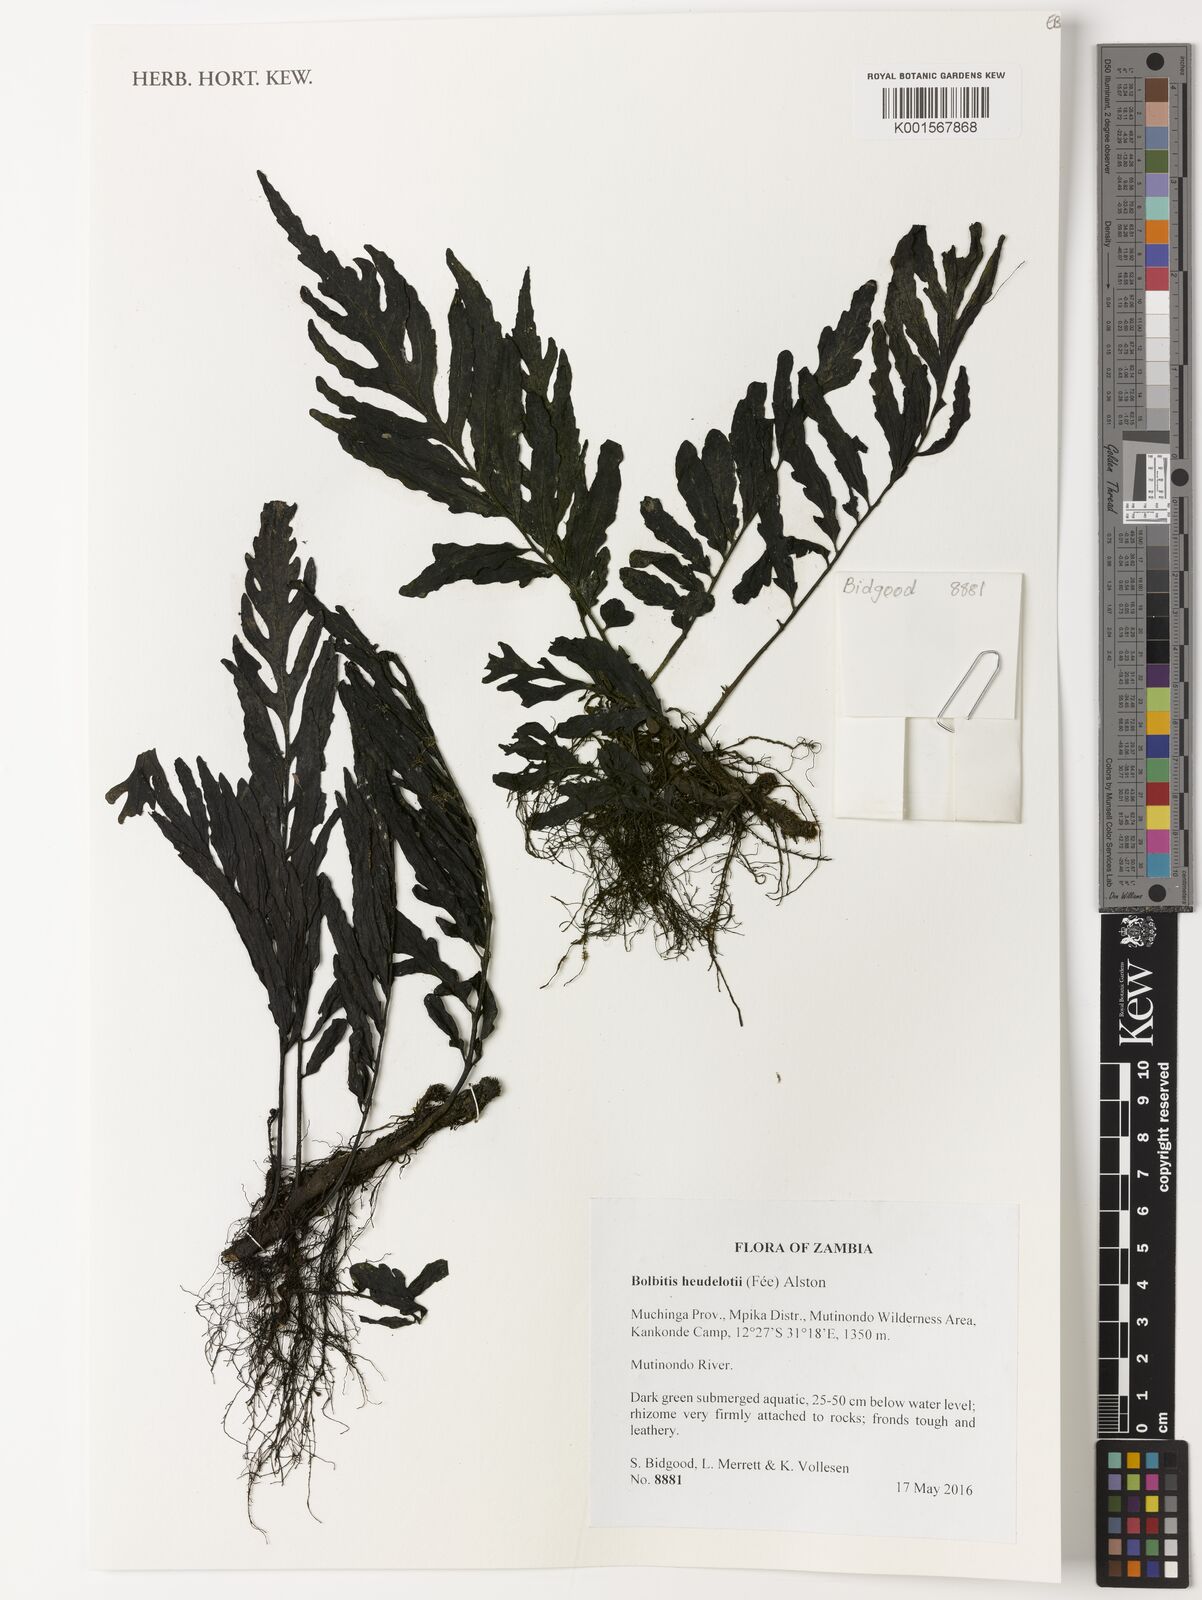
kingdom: Plantae
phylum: Tracheophyta
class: Polypodiopsida
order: Polypodiales
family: Dryopteridaceae
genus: Bolbitis
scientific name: Bolbitis
